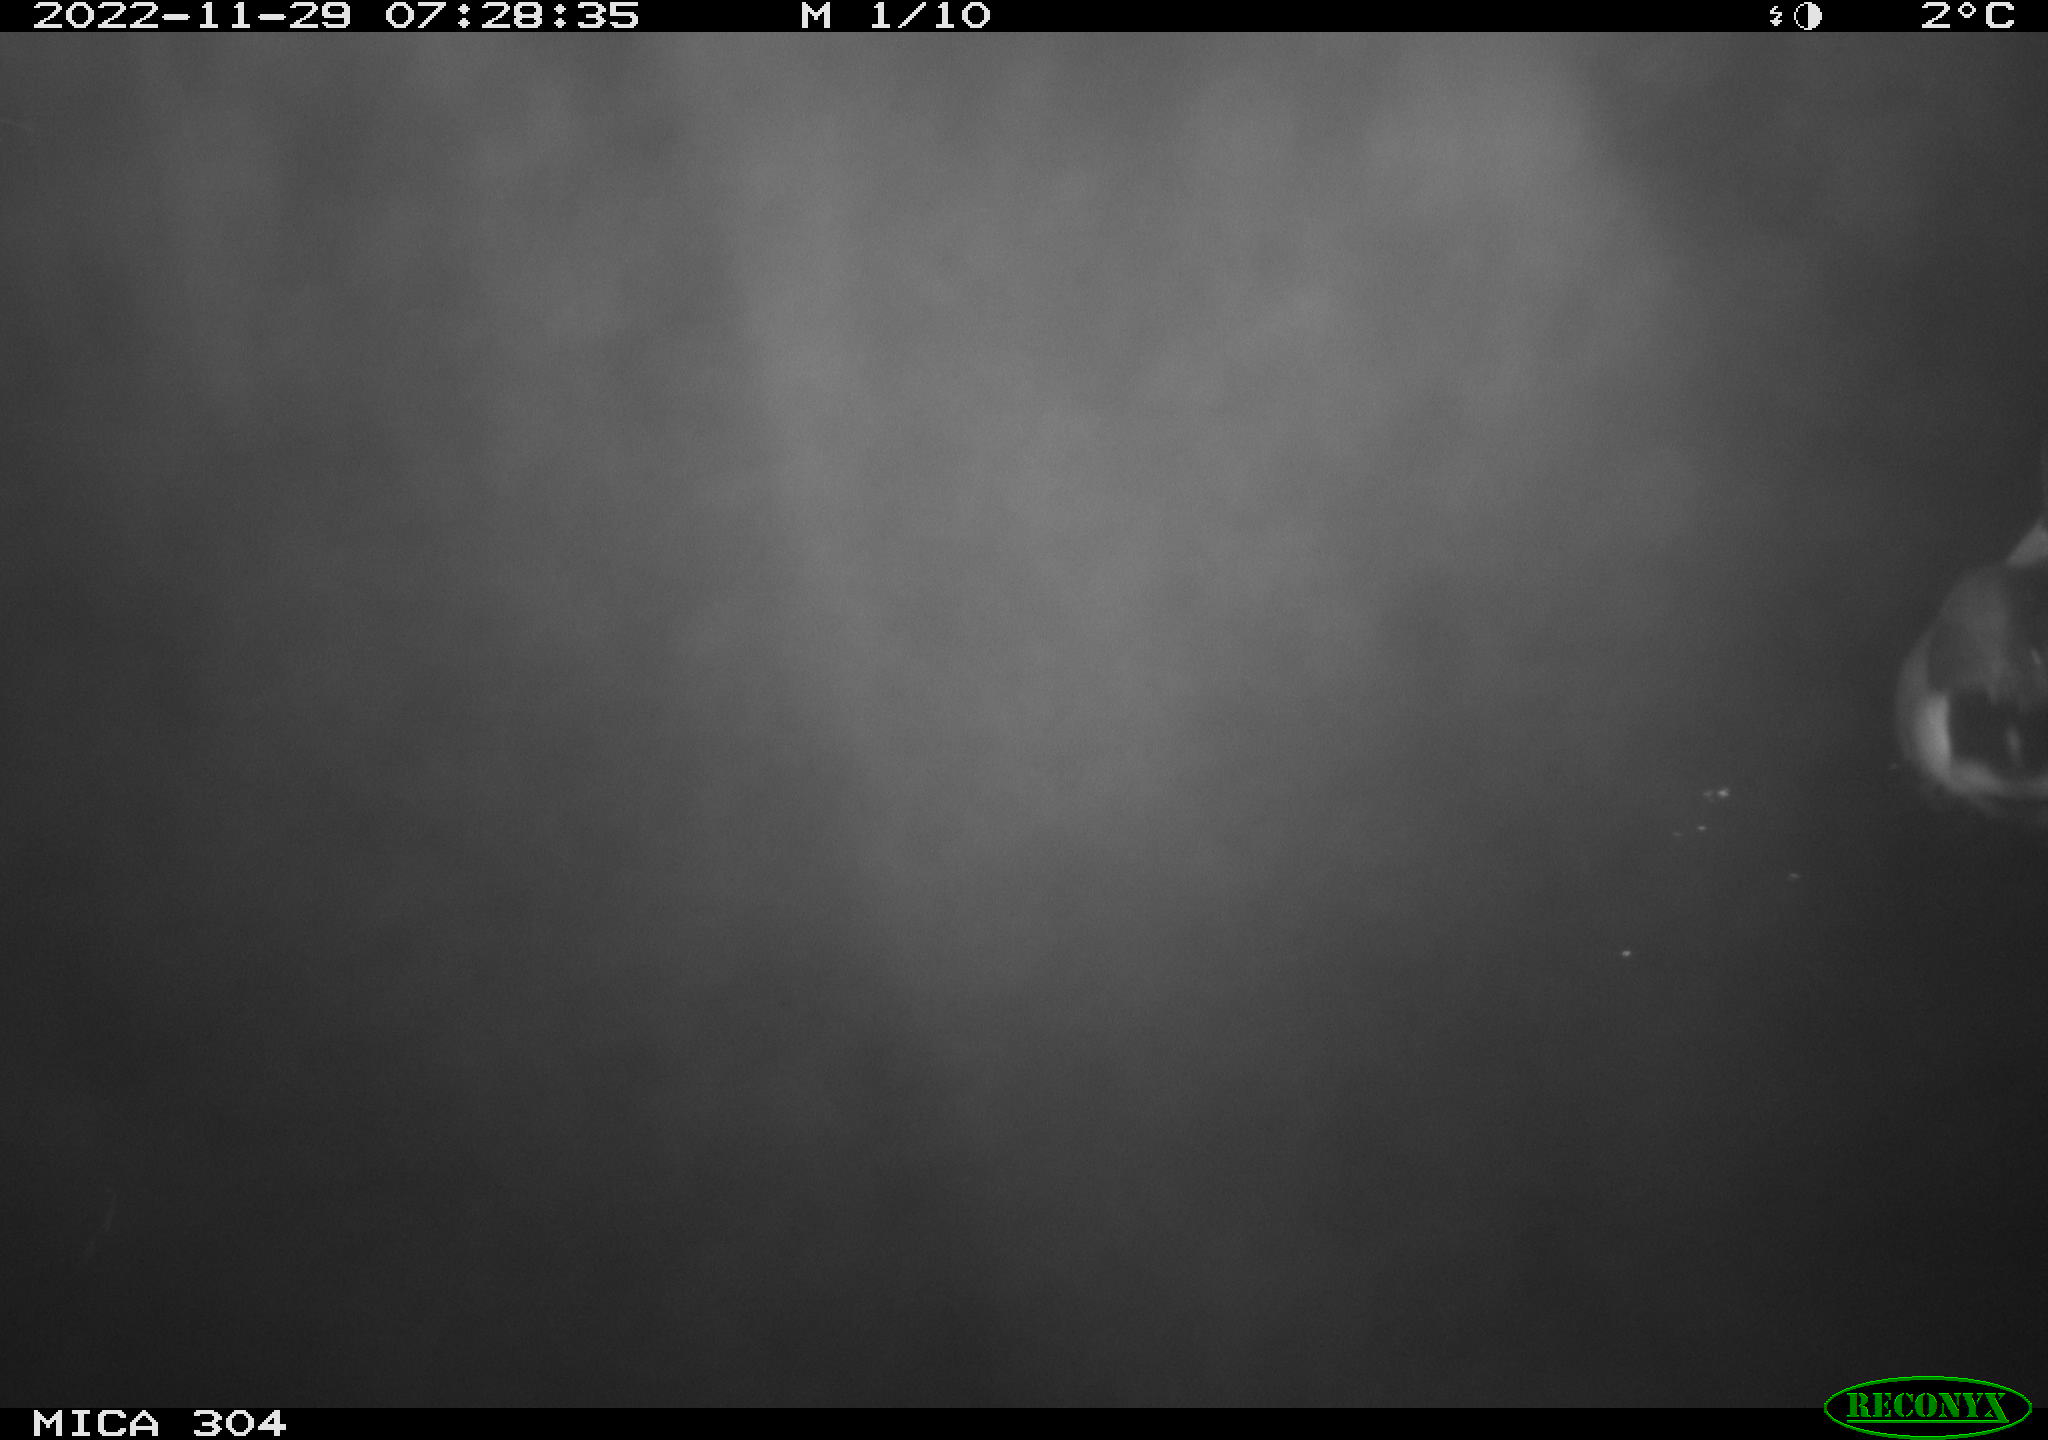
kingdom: Animalia
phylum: Chordata
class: Aves
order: Anseriformes
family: Anatidae
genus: Anas
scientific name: Anas
